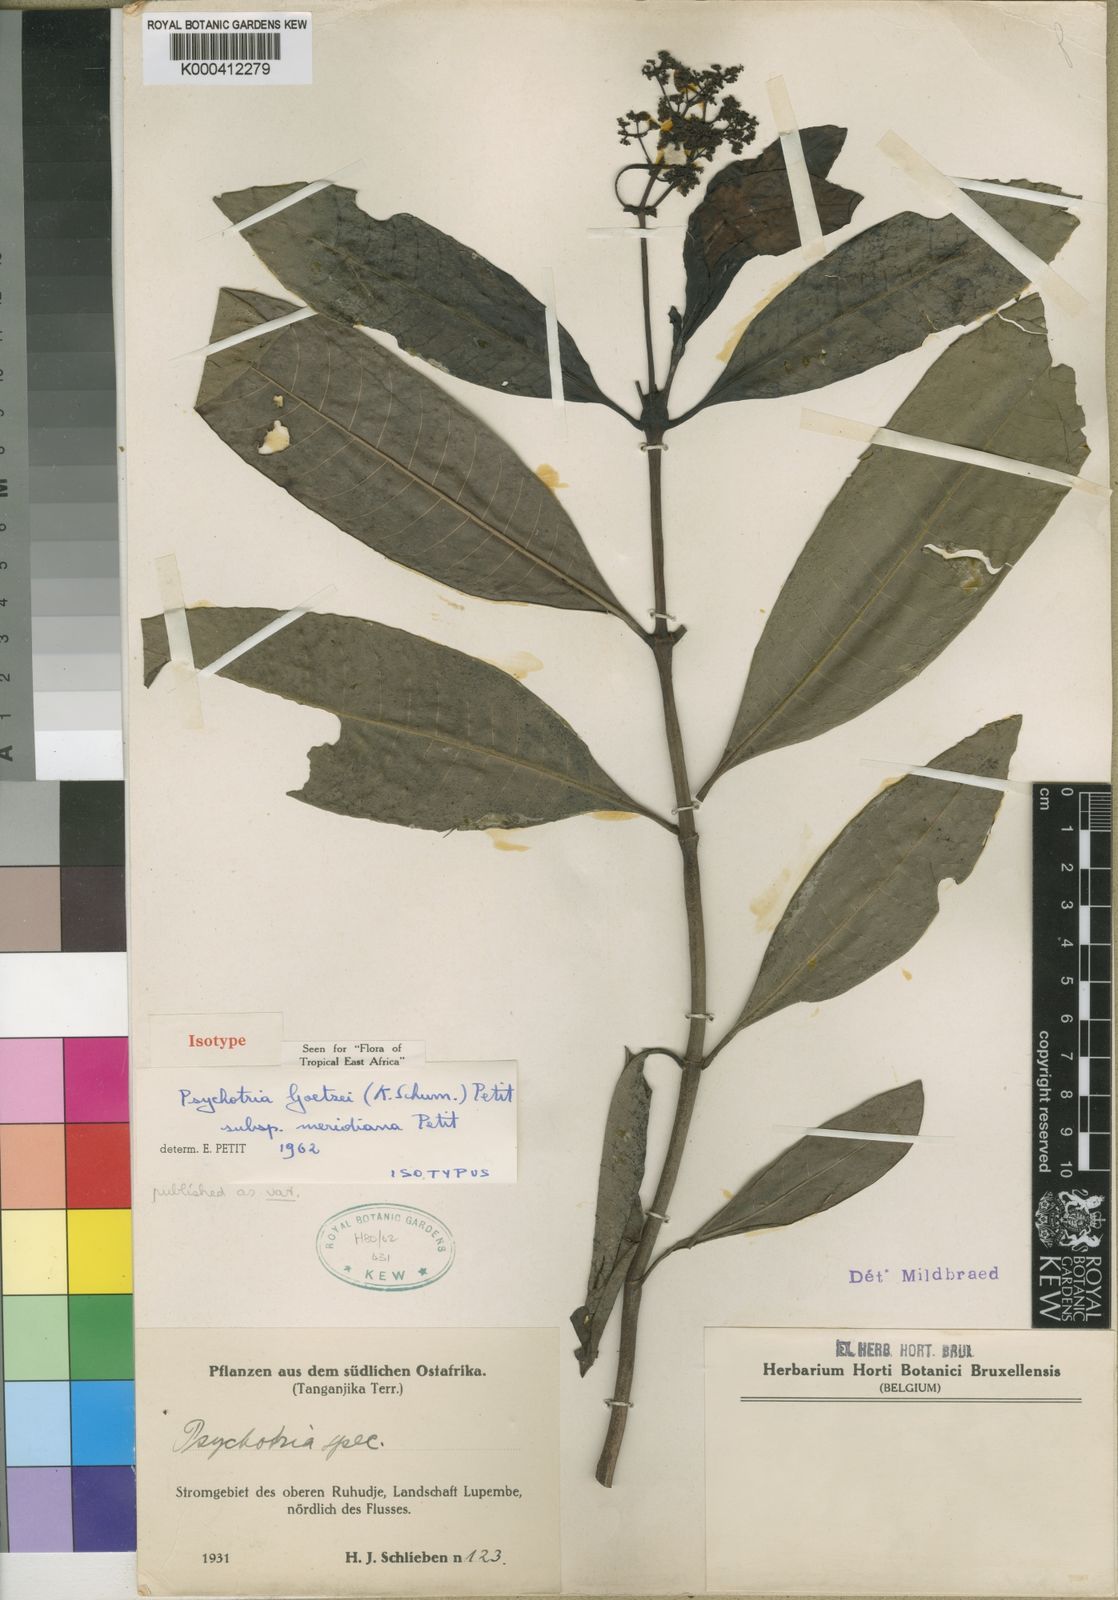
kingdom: Plantae
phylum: Tracheophyta
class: Magnoliopsida
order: Gentianales
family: Rubiaceae
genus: Psychotria
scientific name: Psychotria goetzei
